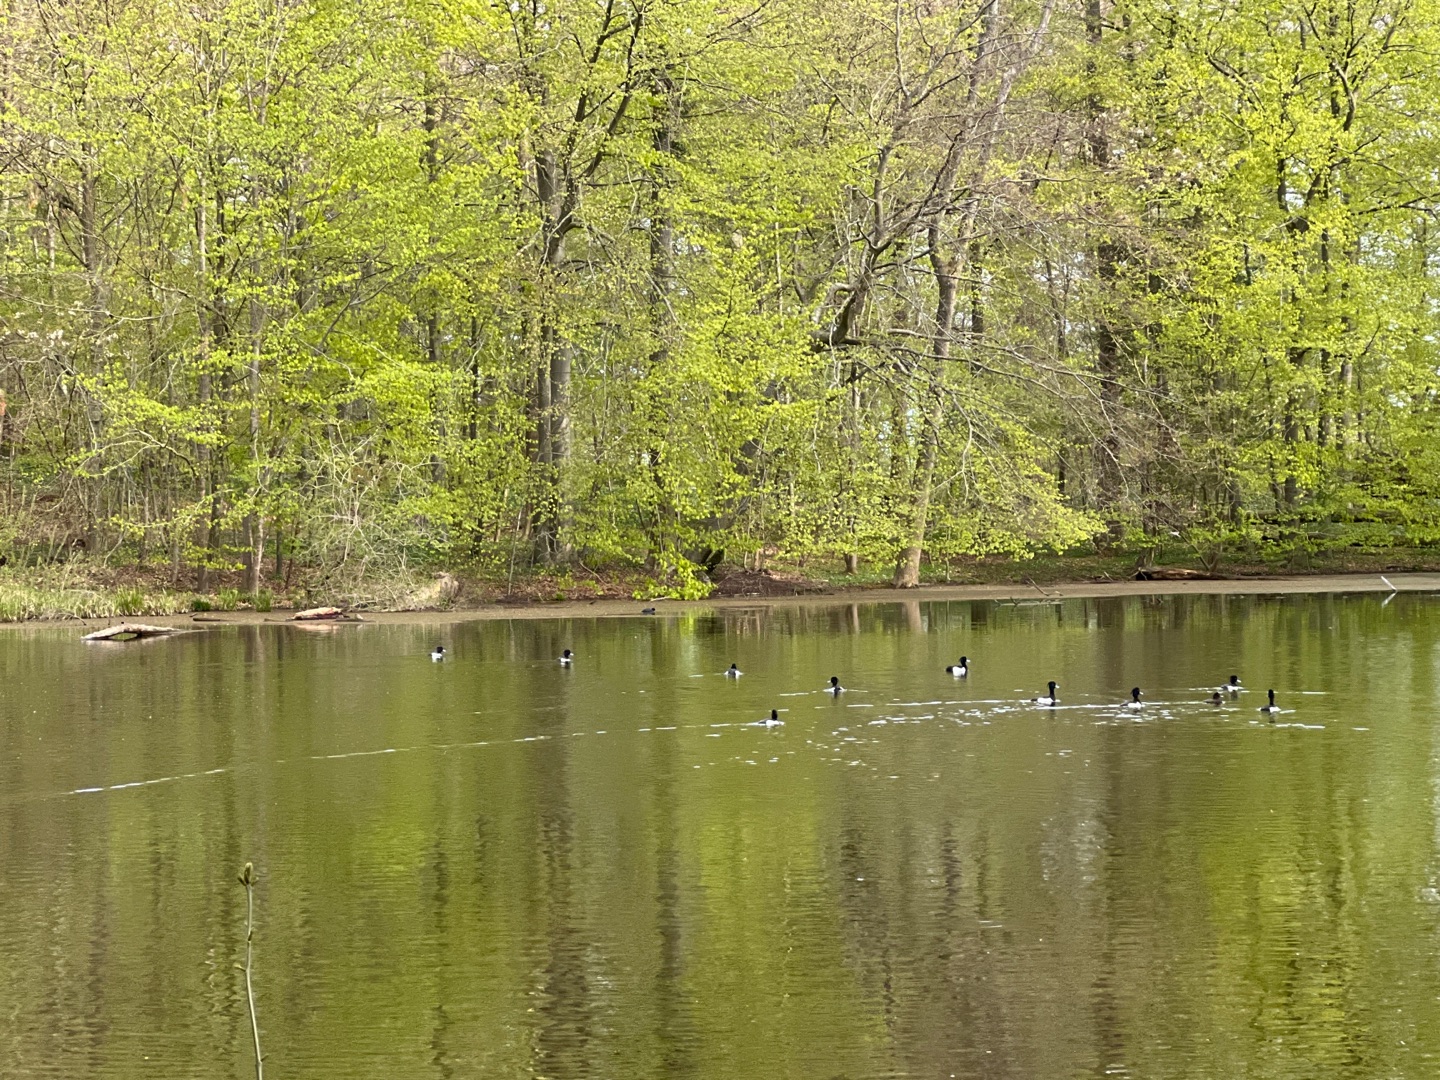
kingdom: Animalia
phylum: Chordata
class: Aves
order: Anseriformes
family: Anatidae
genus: Aythya
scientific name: Aythya fuligula
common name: Troldand
